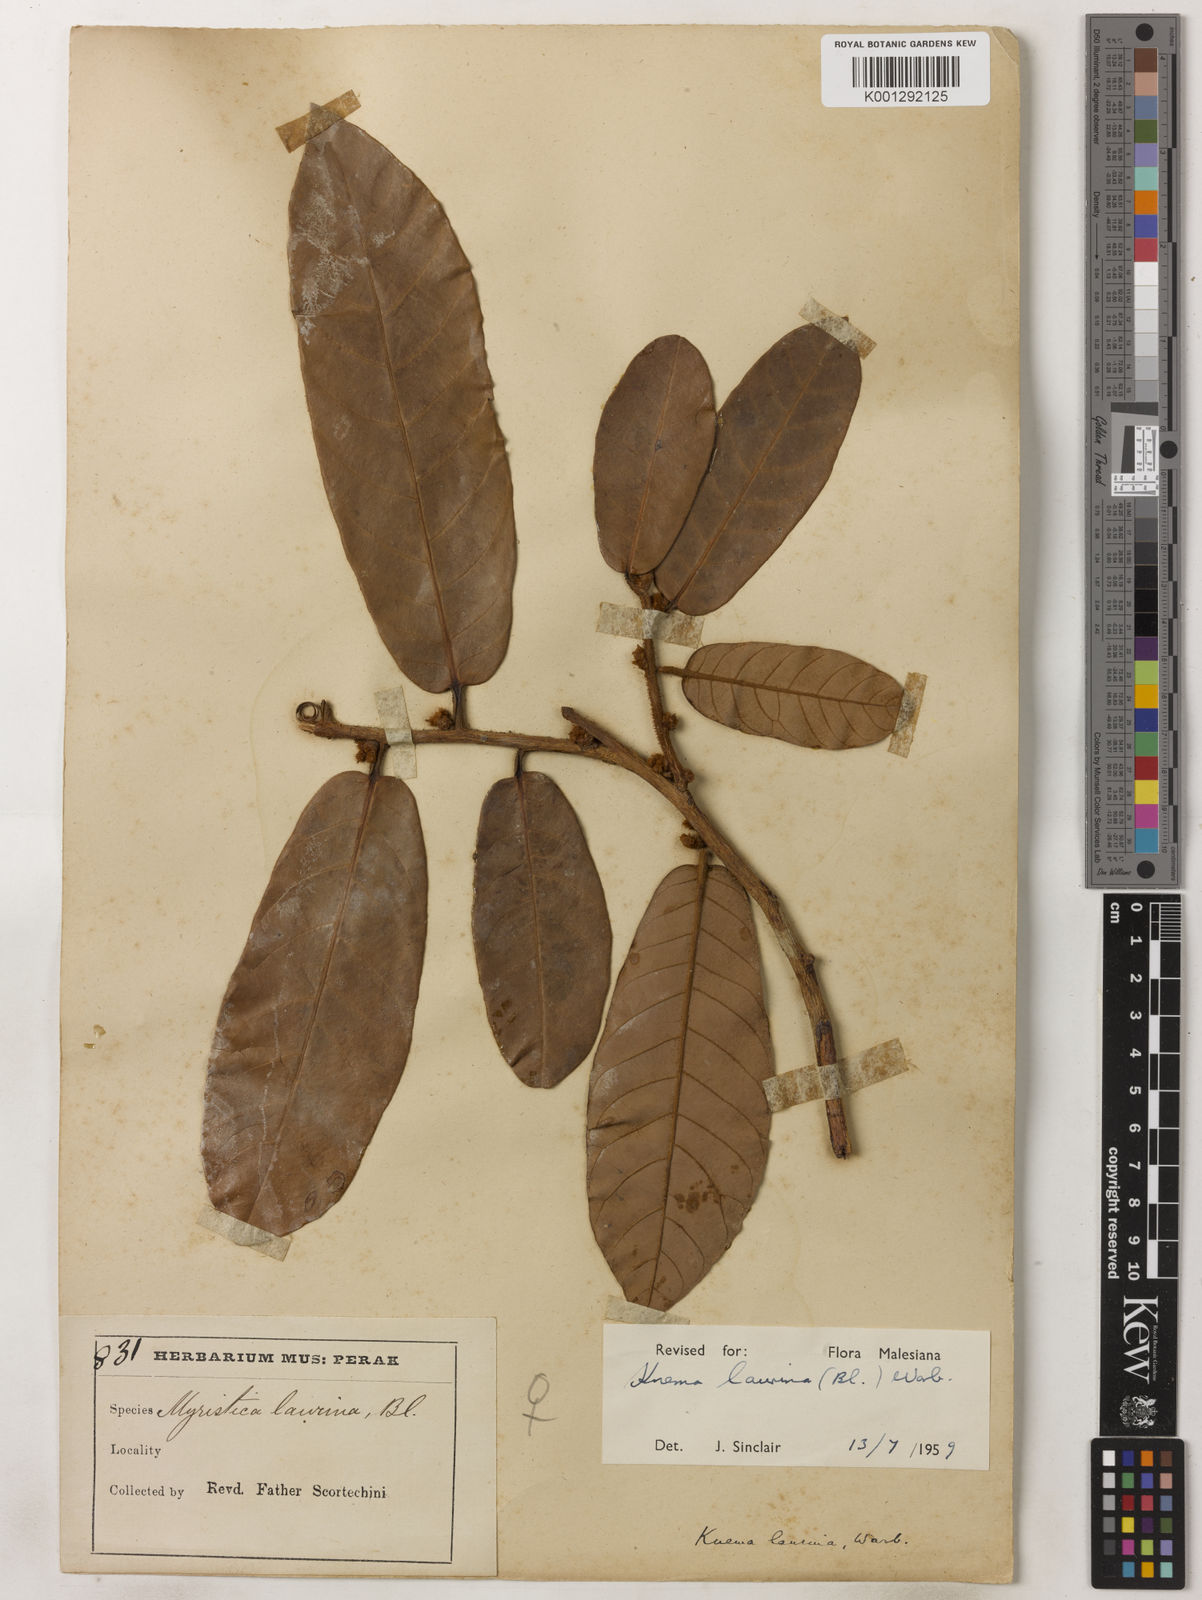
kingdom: Plantae
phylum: Tracheophyta
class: Magnoliopsida
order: Magnoliales
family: Myristicaceae
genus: Knema
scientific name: Knema laurina
